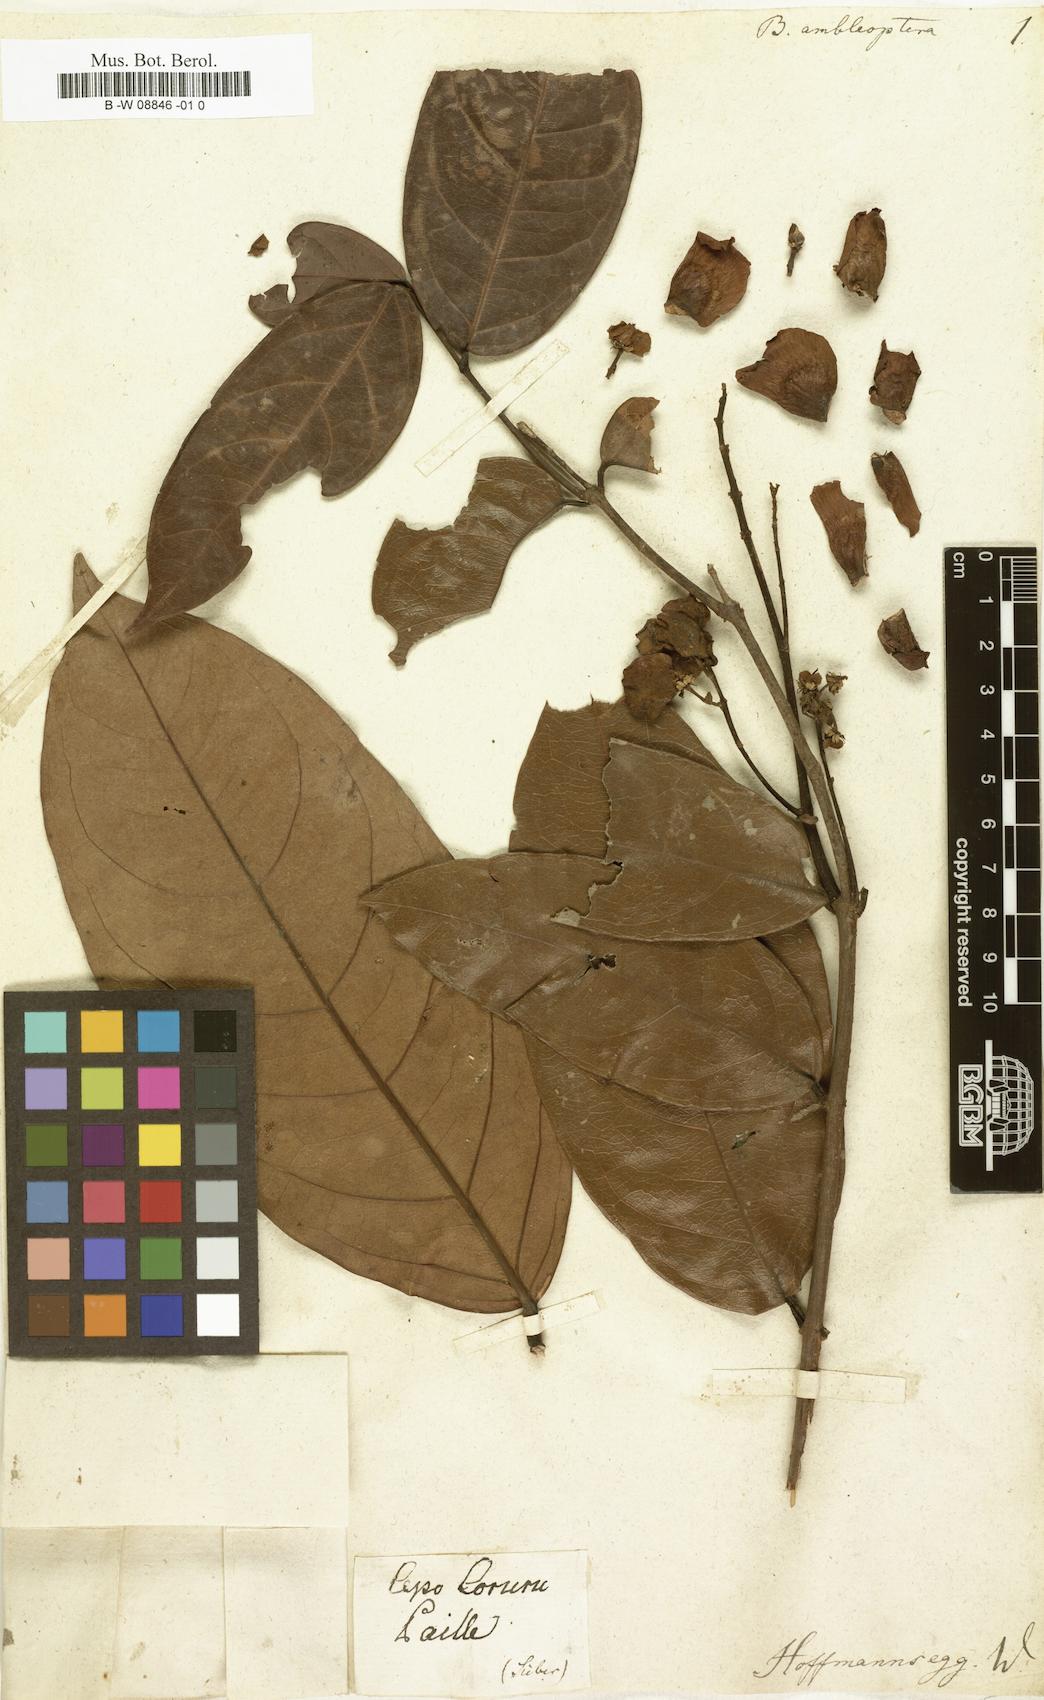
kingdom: Plantae
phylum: Tracheophyta
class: Magnoliopsida
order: Malpighiales
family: Malpighiaceae
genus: Heteropterys
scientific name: Heteropterys
